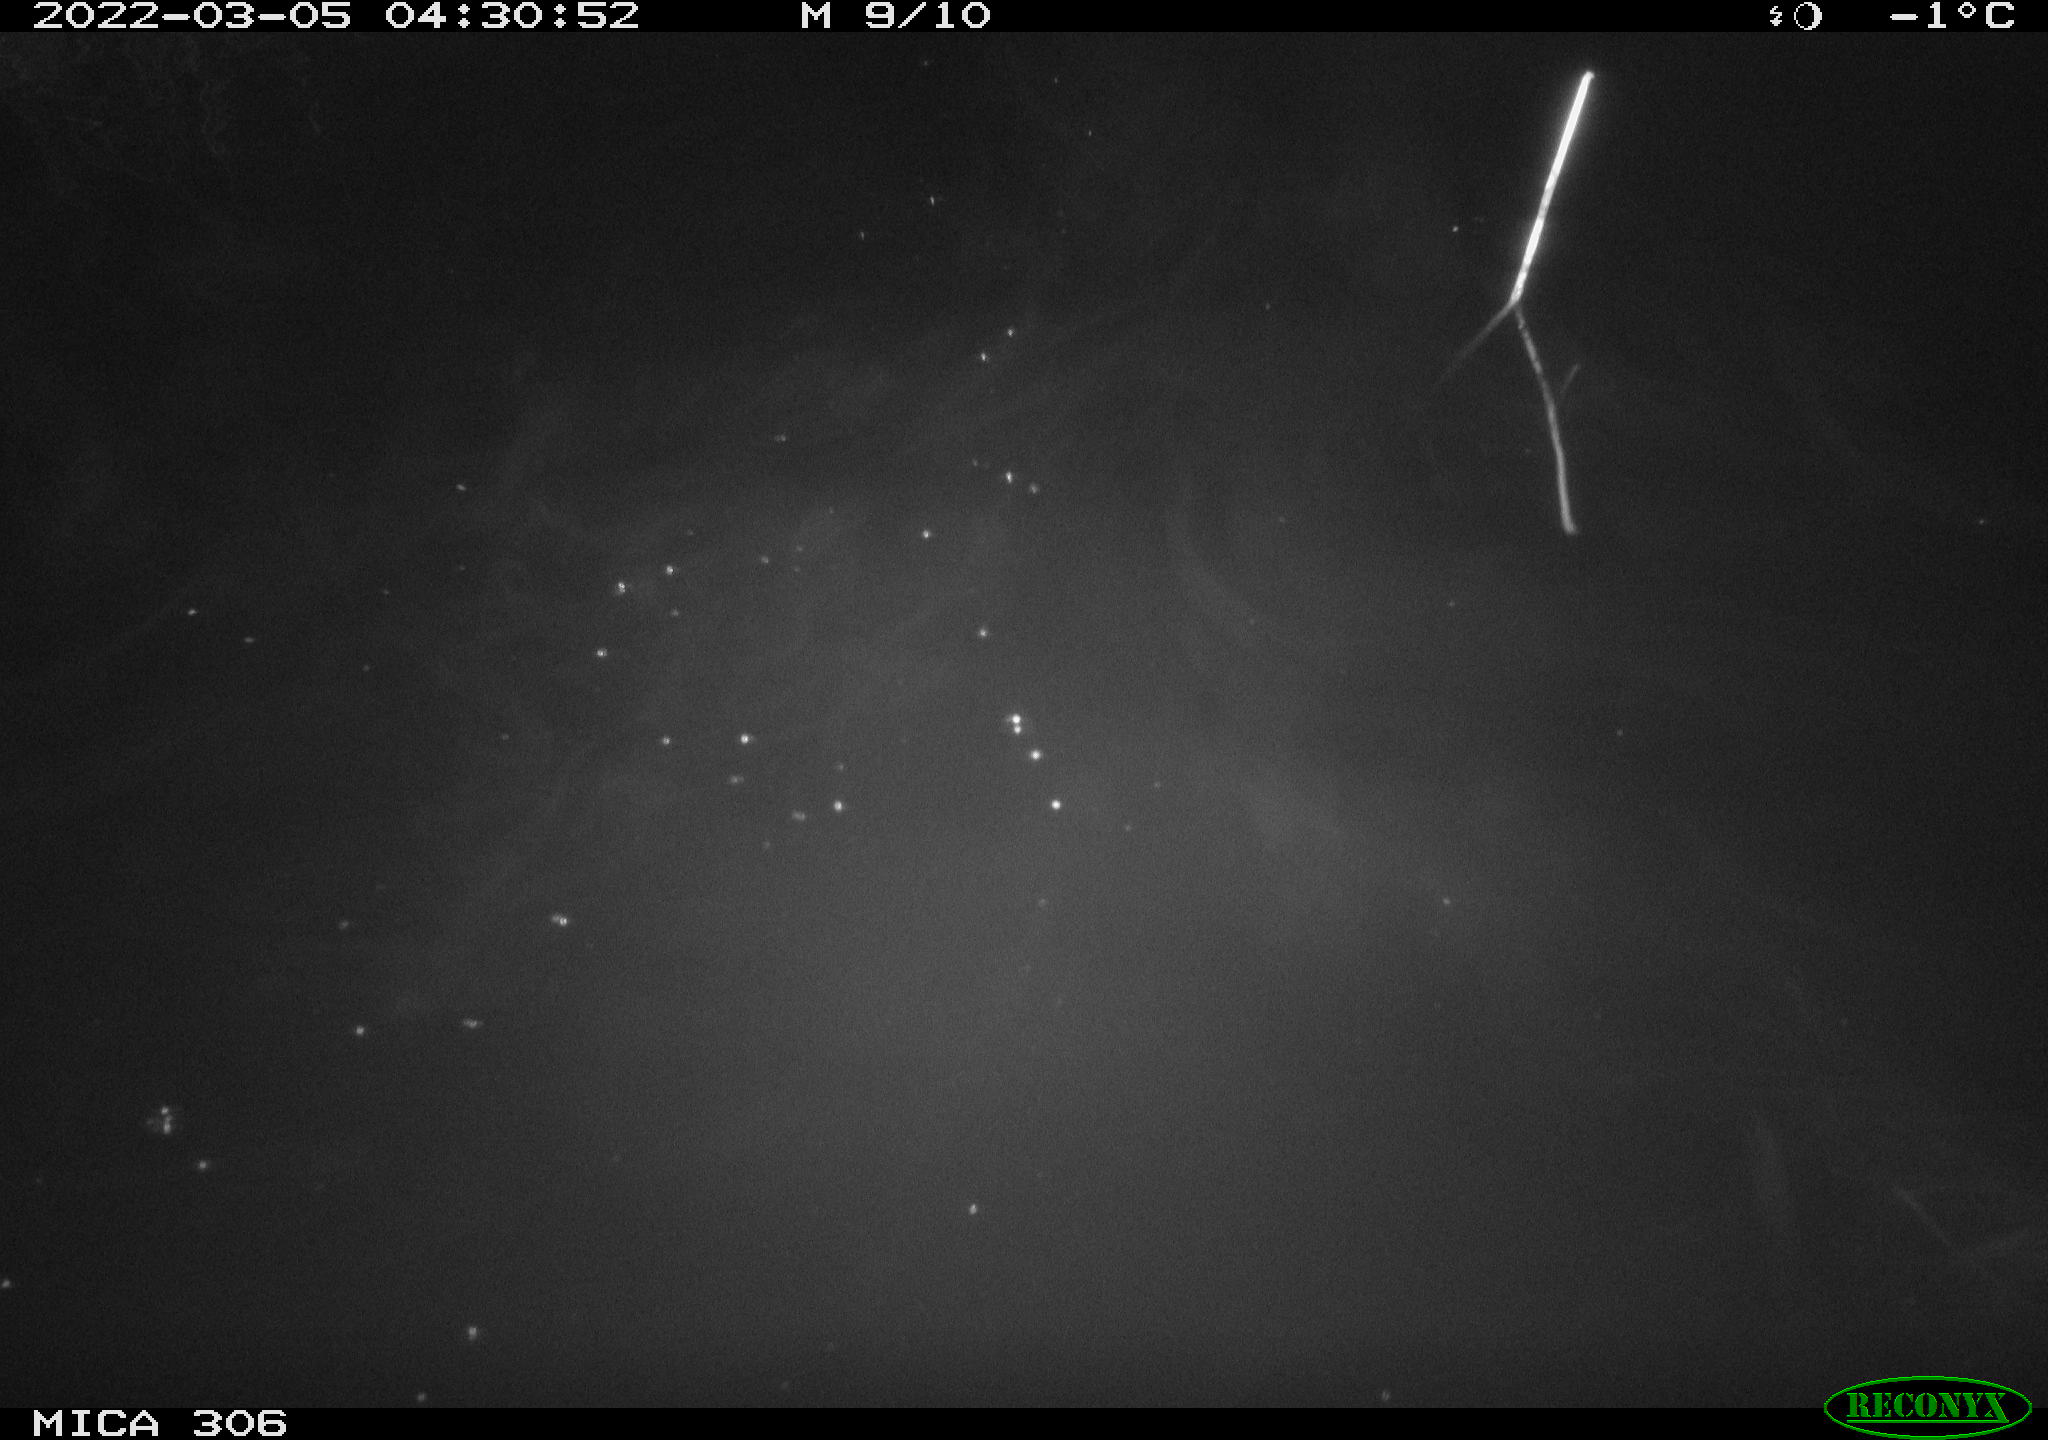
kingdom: Animalia
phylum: Chordata
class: Mammalia
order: Rodentia
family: Cricetidae
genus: Ondatra
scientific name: Ondatra zibethicus
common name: Muskrat
